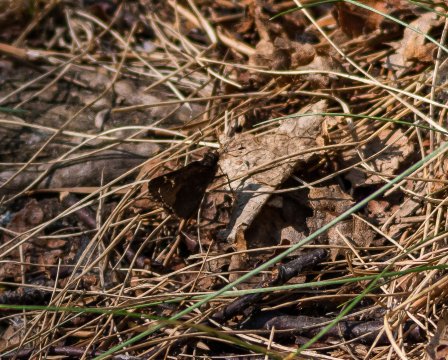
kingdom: Animalia
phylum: Arthropoda
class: Insecta
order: Lepidoptera
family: Hesperiidae
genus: Mastor
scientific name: Mastor vialis
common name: Common Roadside-Skipper
